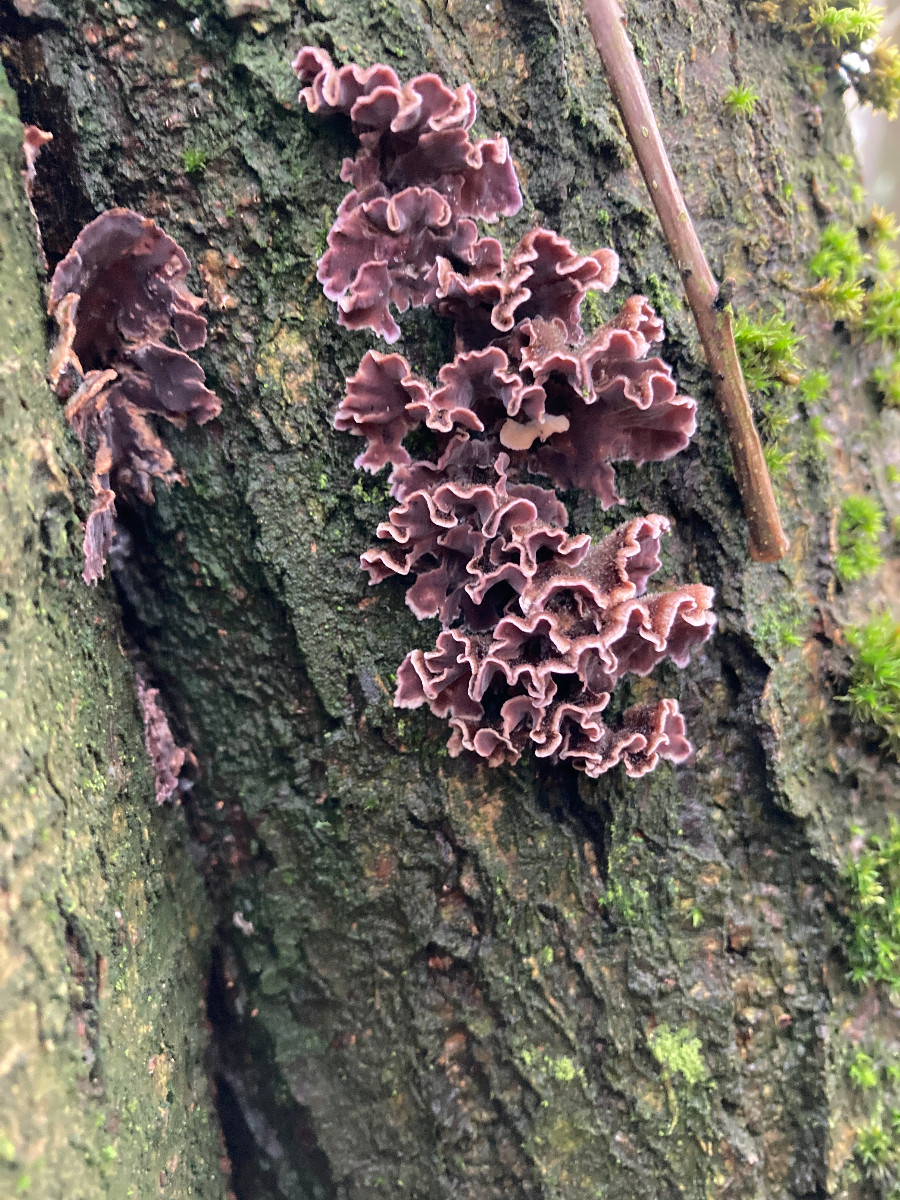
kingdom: Fungi
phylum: Basidiomycota
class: Agaricomycetes
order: Agaricales
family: Cyphellaceae
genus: Chondrostereum
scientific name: Chondrostereum purpureum
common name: purpurlædersvamp
